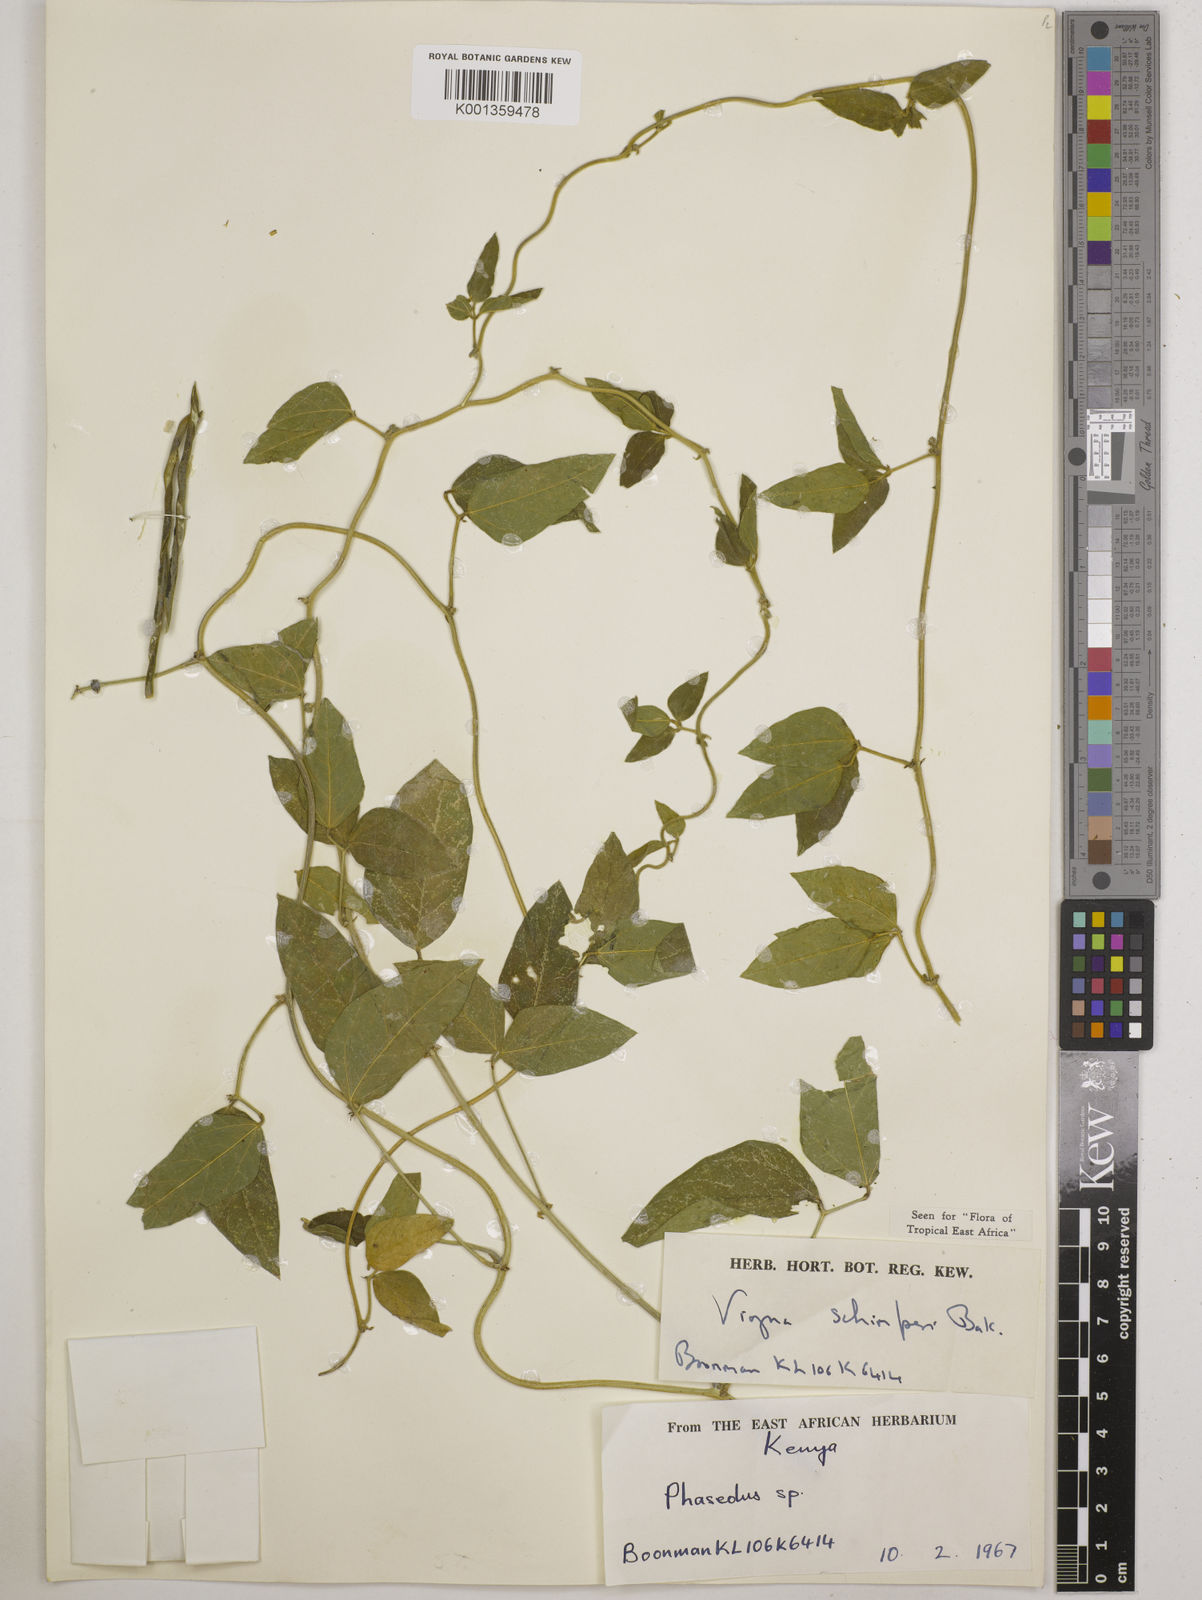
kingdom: Plantae
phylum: Tracheophyta
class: Magnoliopsida
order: Fabales
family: Fabaceae
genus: Vigna
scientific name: Vigna schimperi
